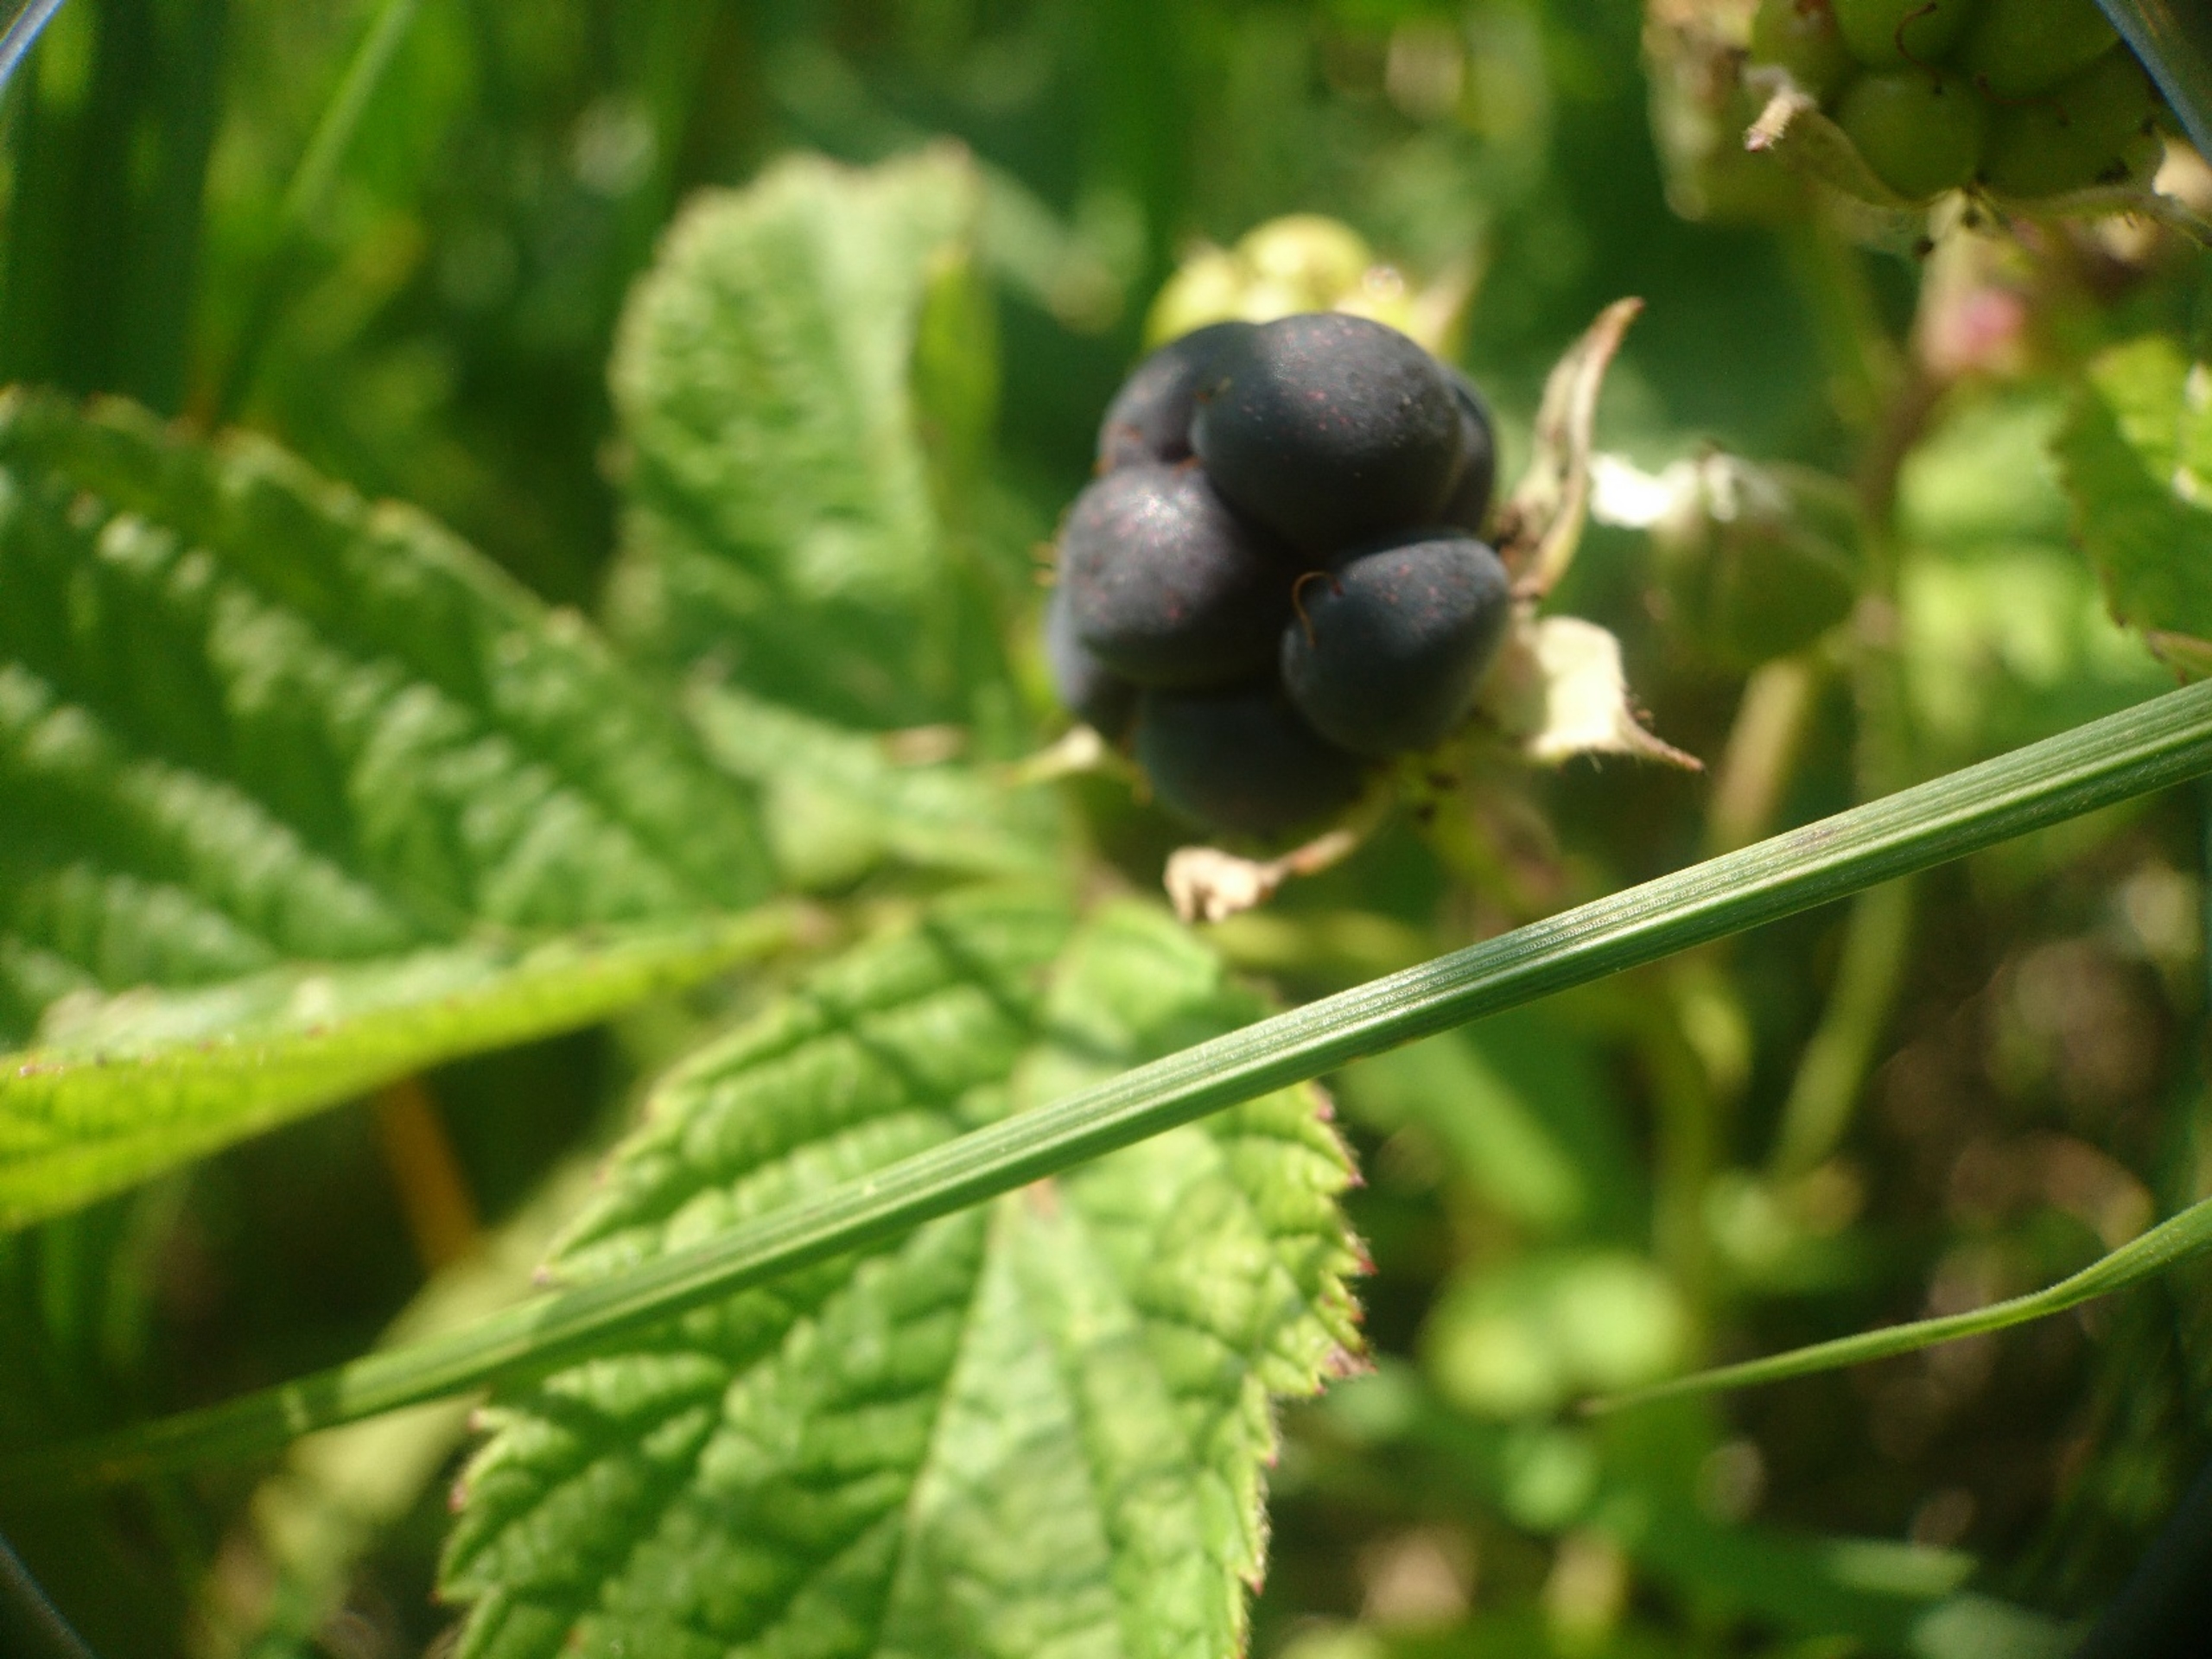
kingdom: Plantae
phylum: Tracheophyta
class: Magnoliopsida
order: Rosales
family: Rosaceae
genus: Rubus
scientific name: Rubus caesius
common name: Korbær
